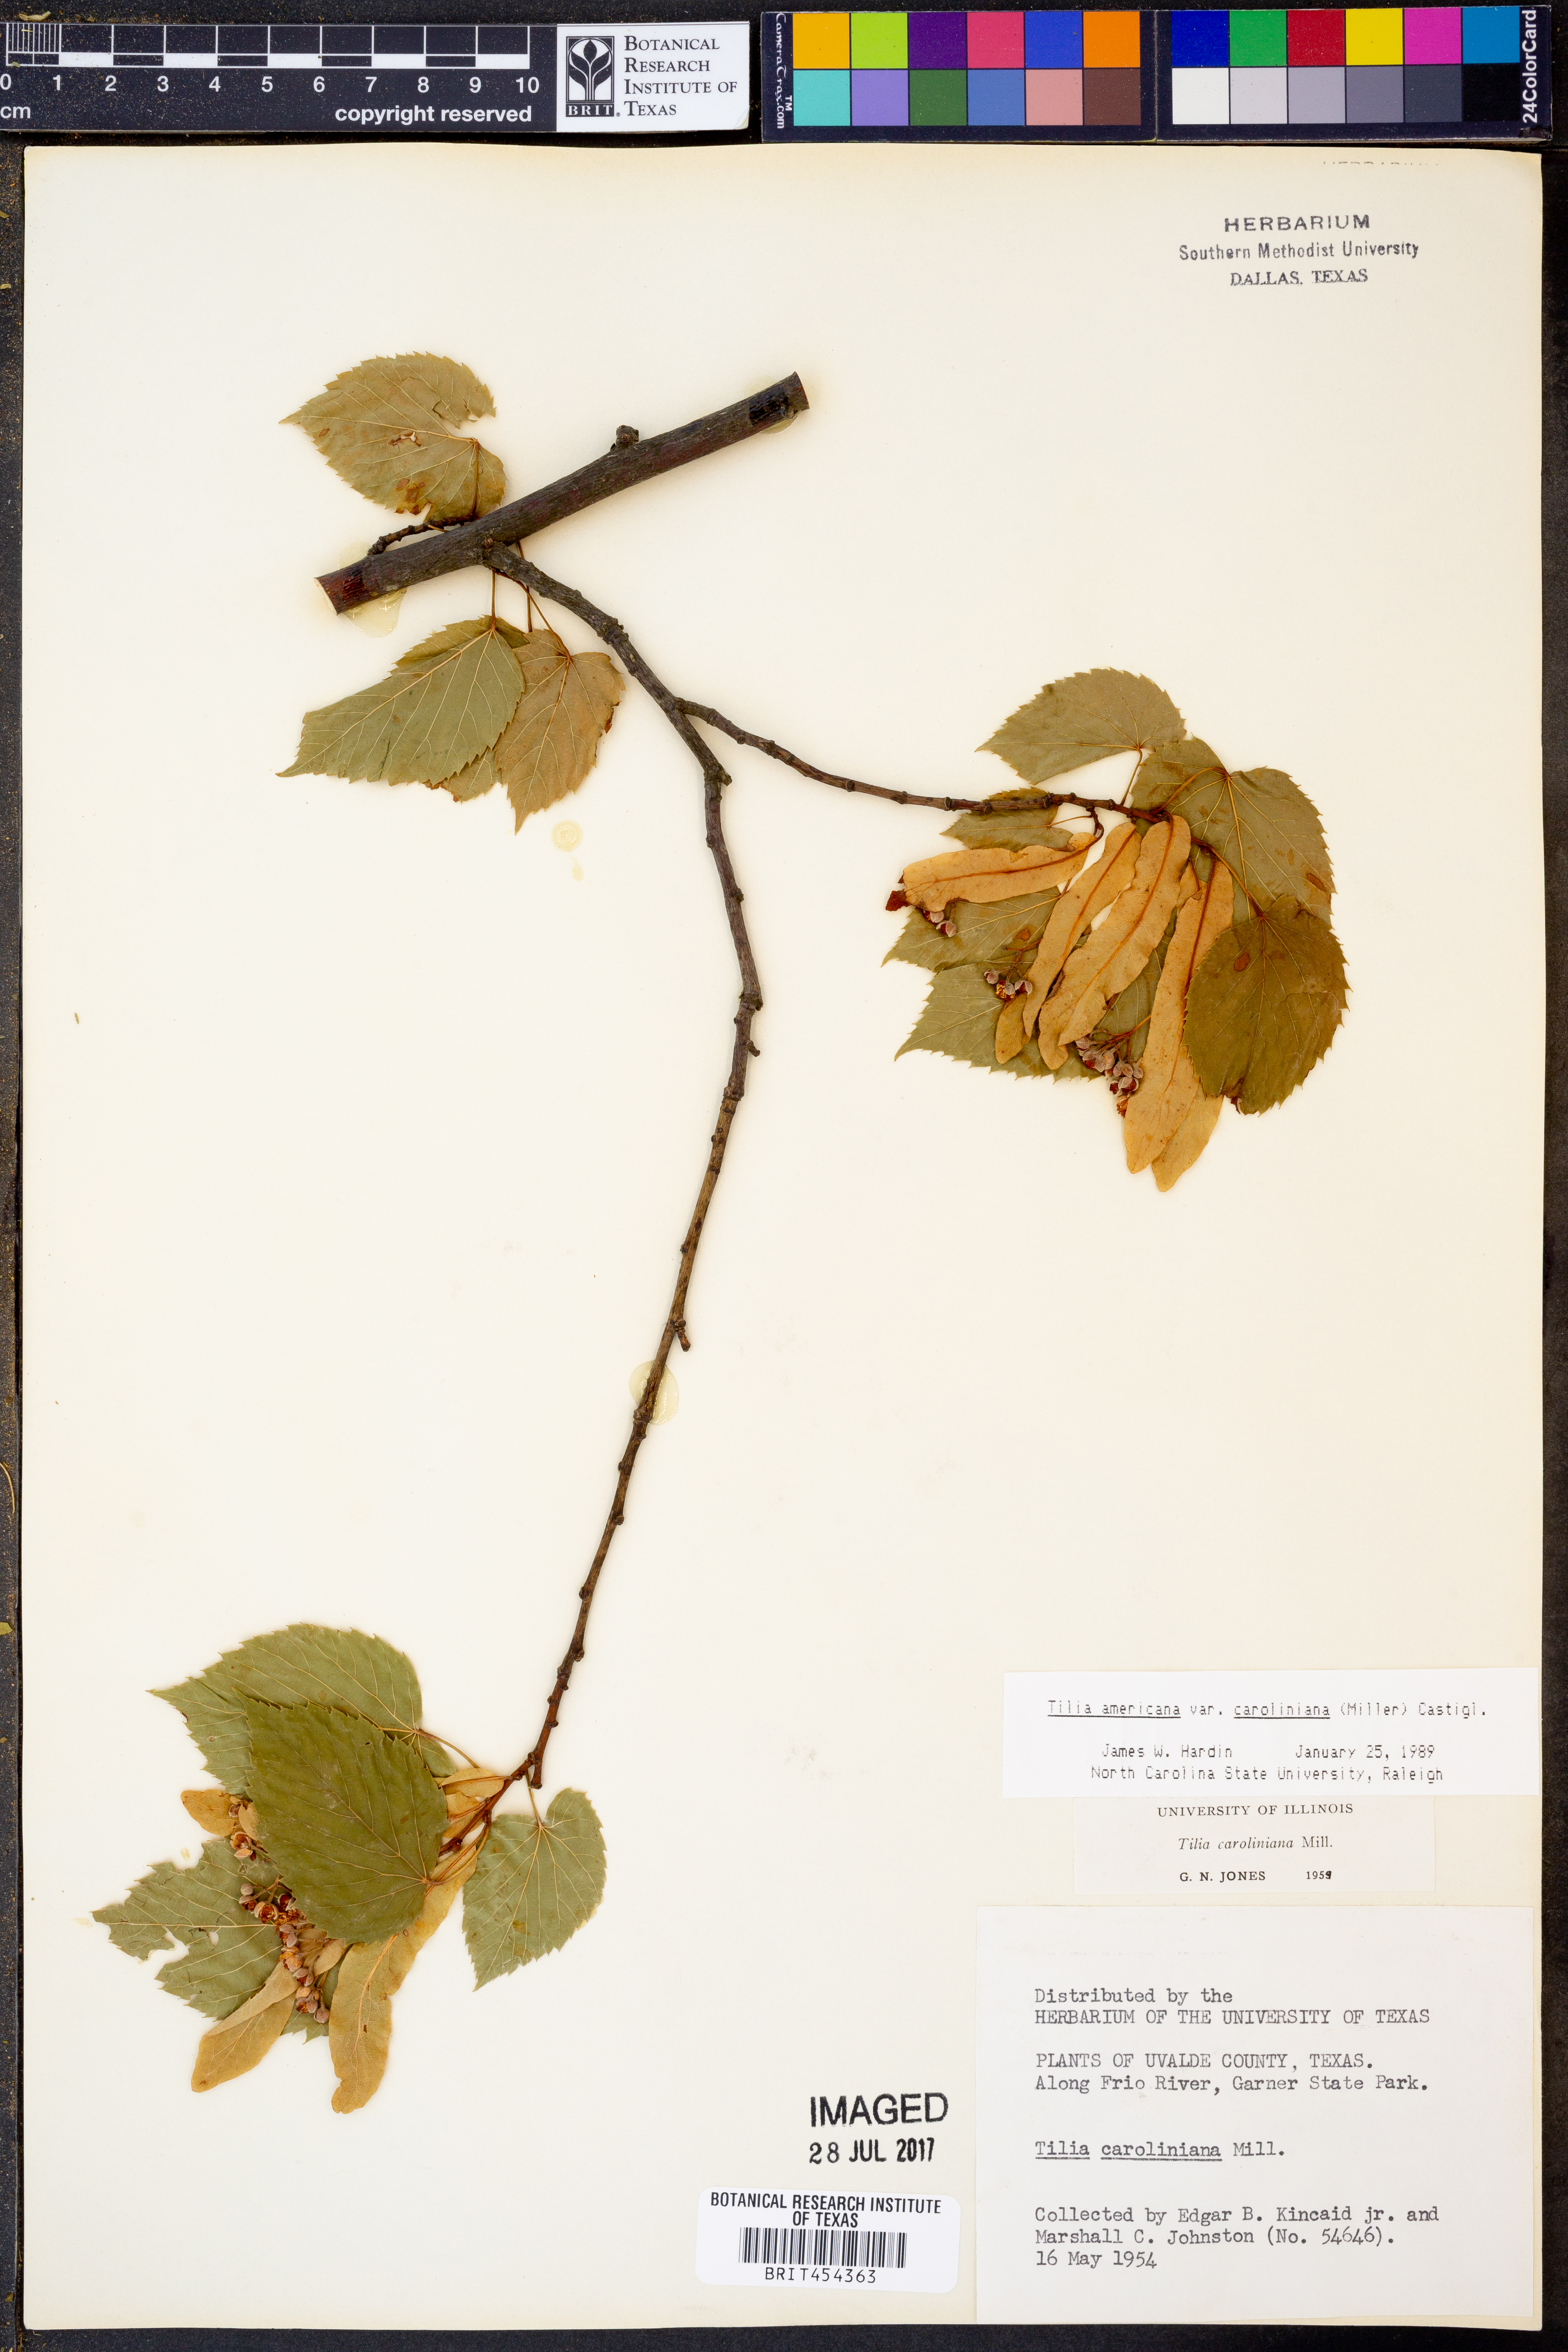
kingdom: Plantae
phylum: Tracheophyta
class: Magnoliopsida
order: Malvales
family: Malvaceae
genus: Tilia
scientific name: Tilia americana
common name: Basswood
